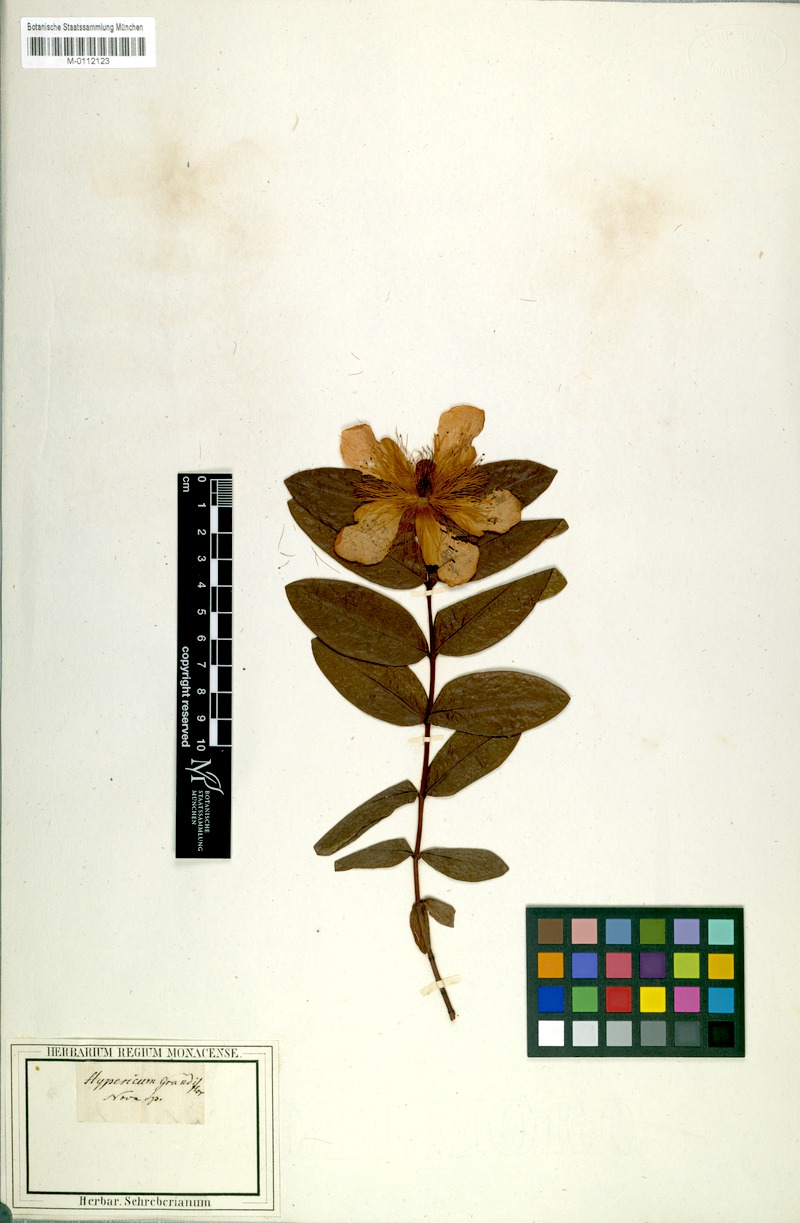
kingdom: Plantae
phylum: Tracheophyta
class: Magnoliopsida
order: Malpighiales
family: Hypericaceae
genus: Hypericum
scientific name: Hypericum calycinum
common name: Rose-of-sharon
